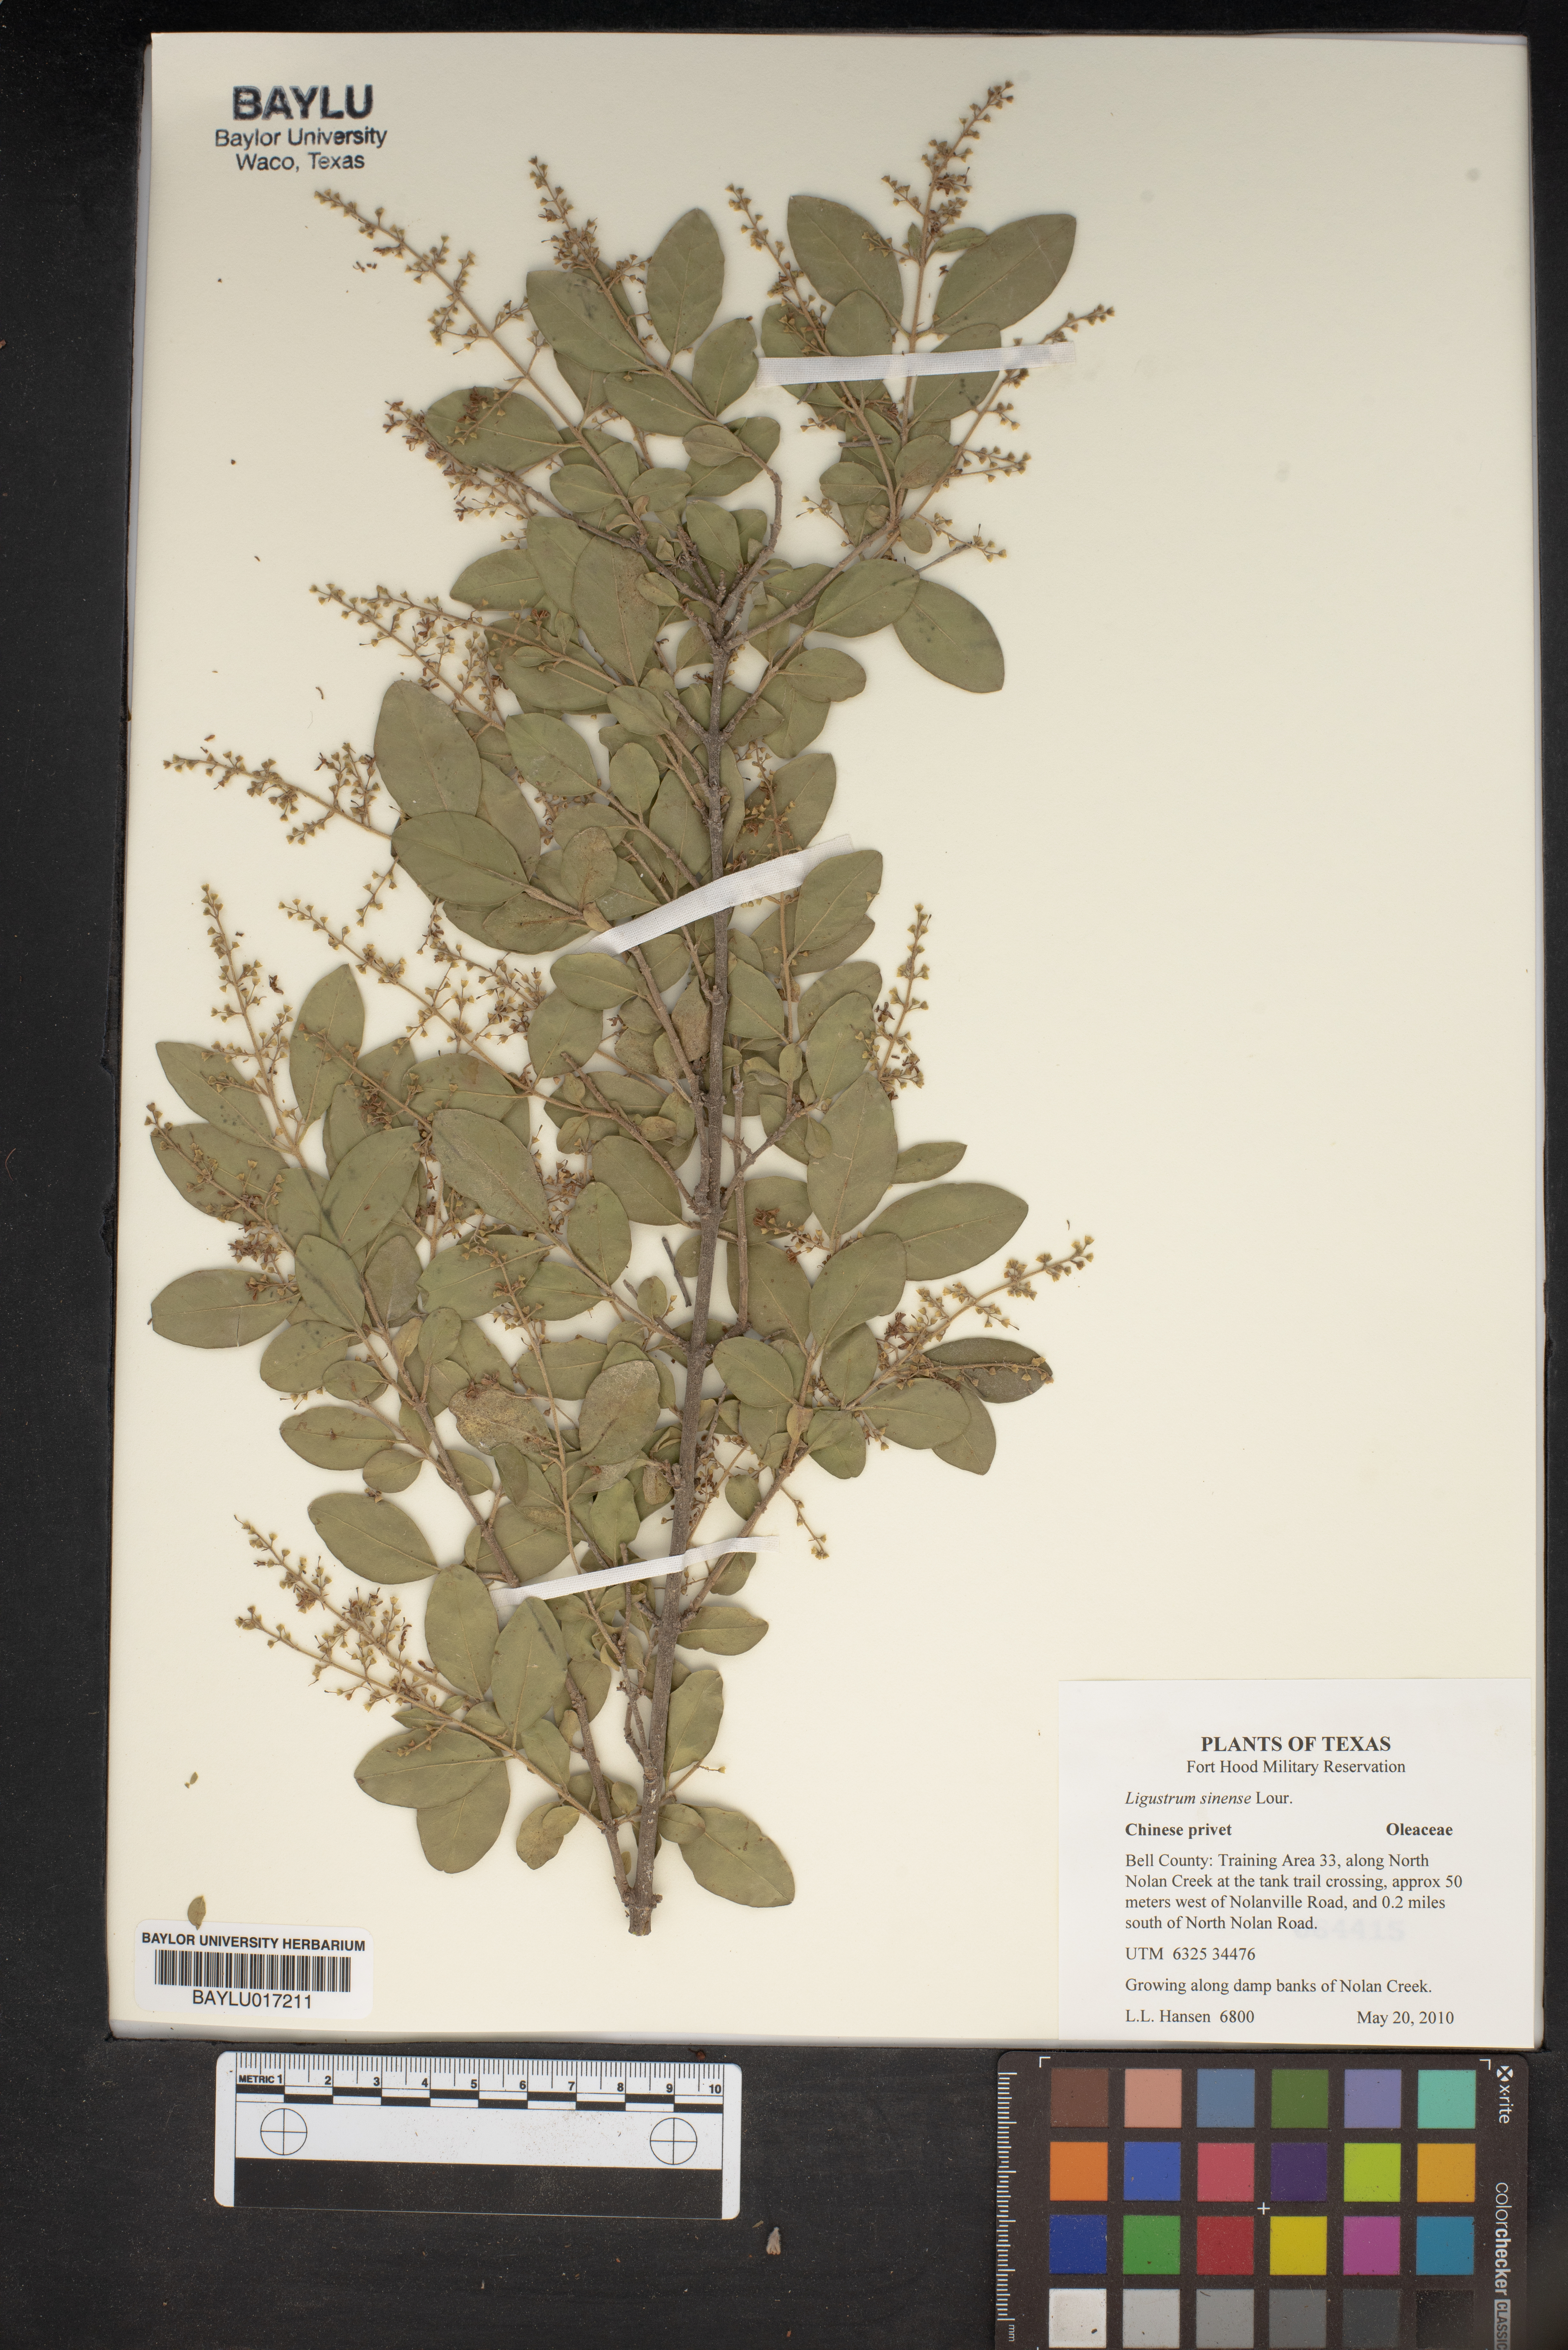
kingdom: Plantae
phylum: Tracheophyta
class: Magnoliopsida
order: Lamiales
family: Oleaceae
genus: Ligustrum
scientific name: Ligustrum sinense
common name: Chinese privet
